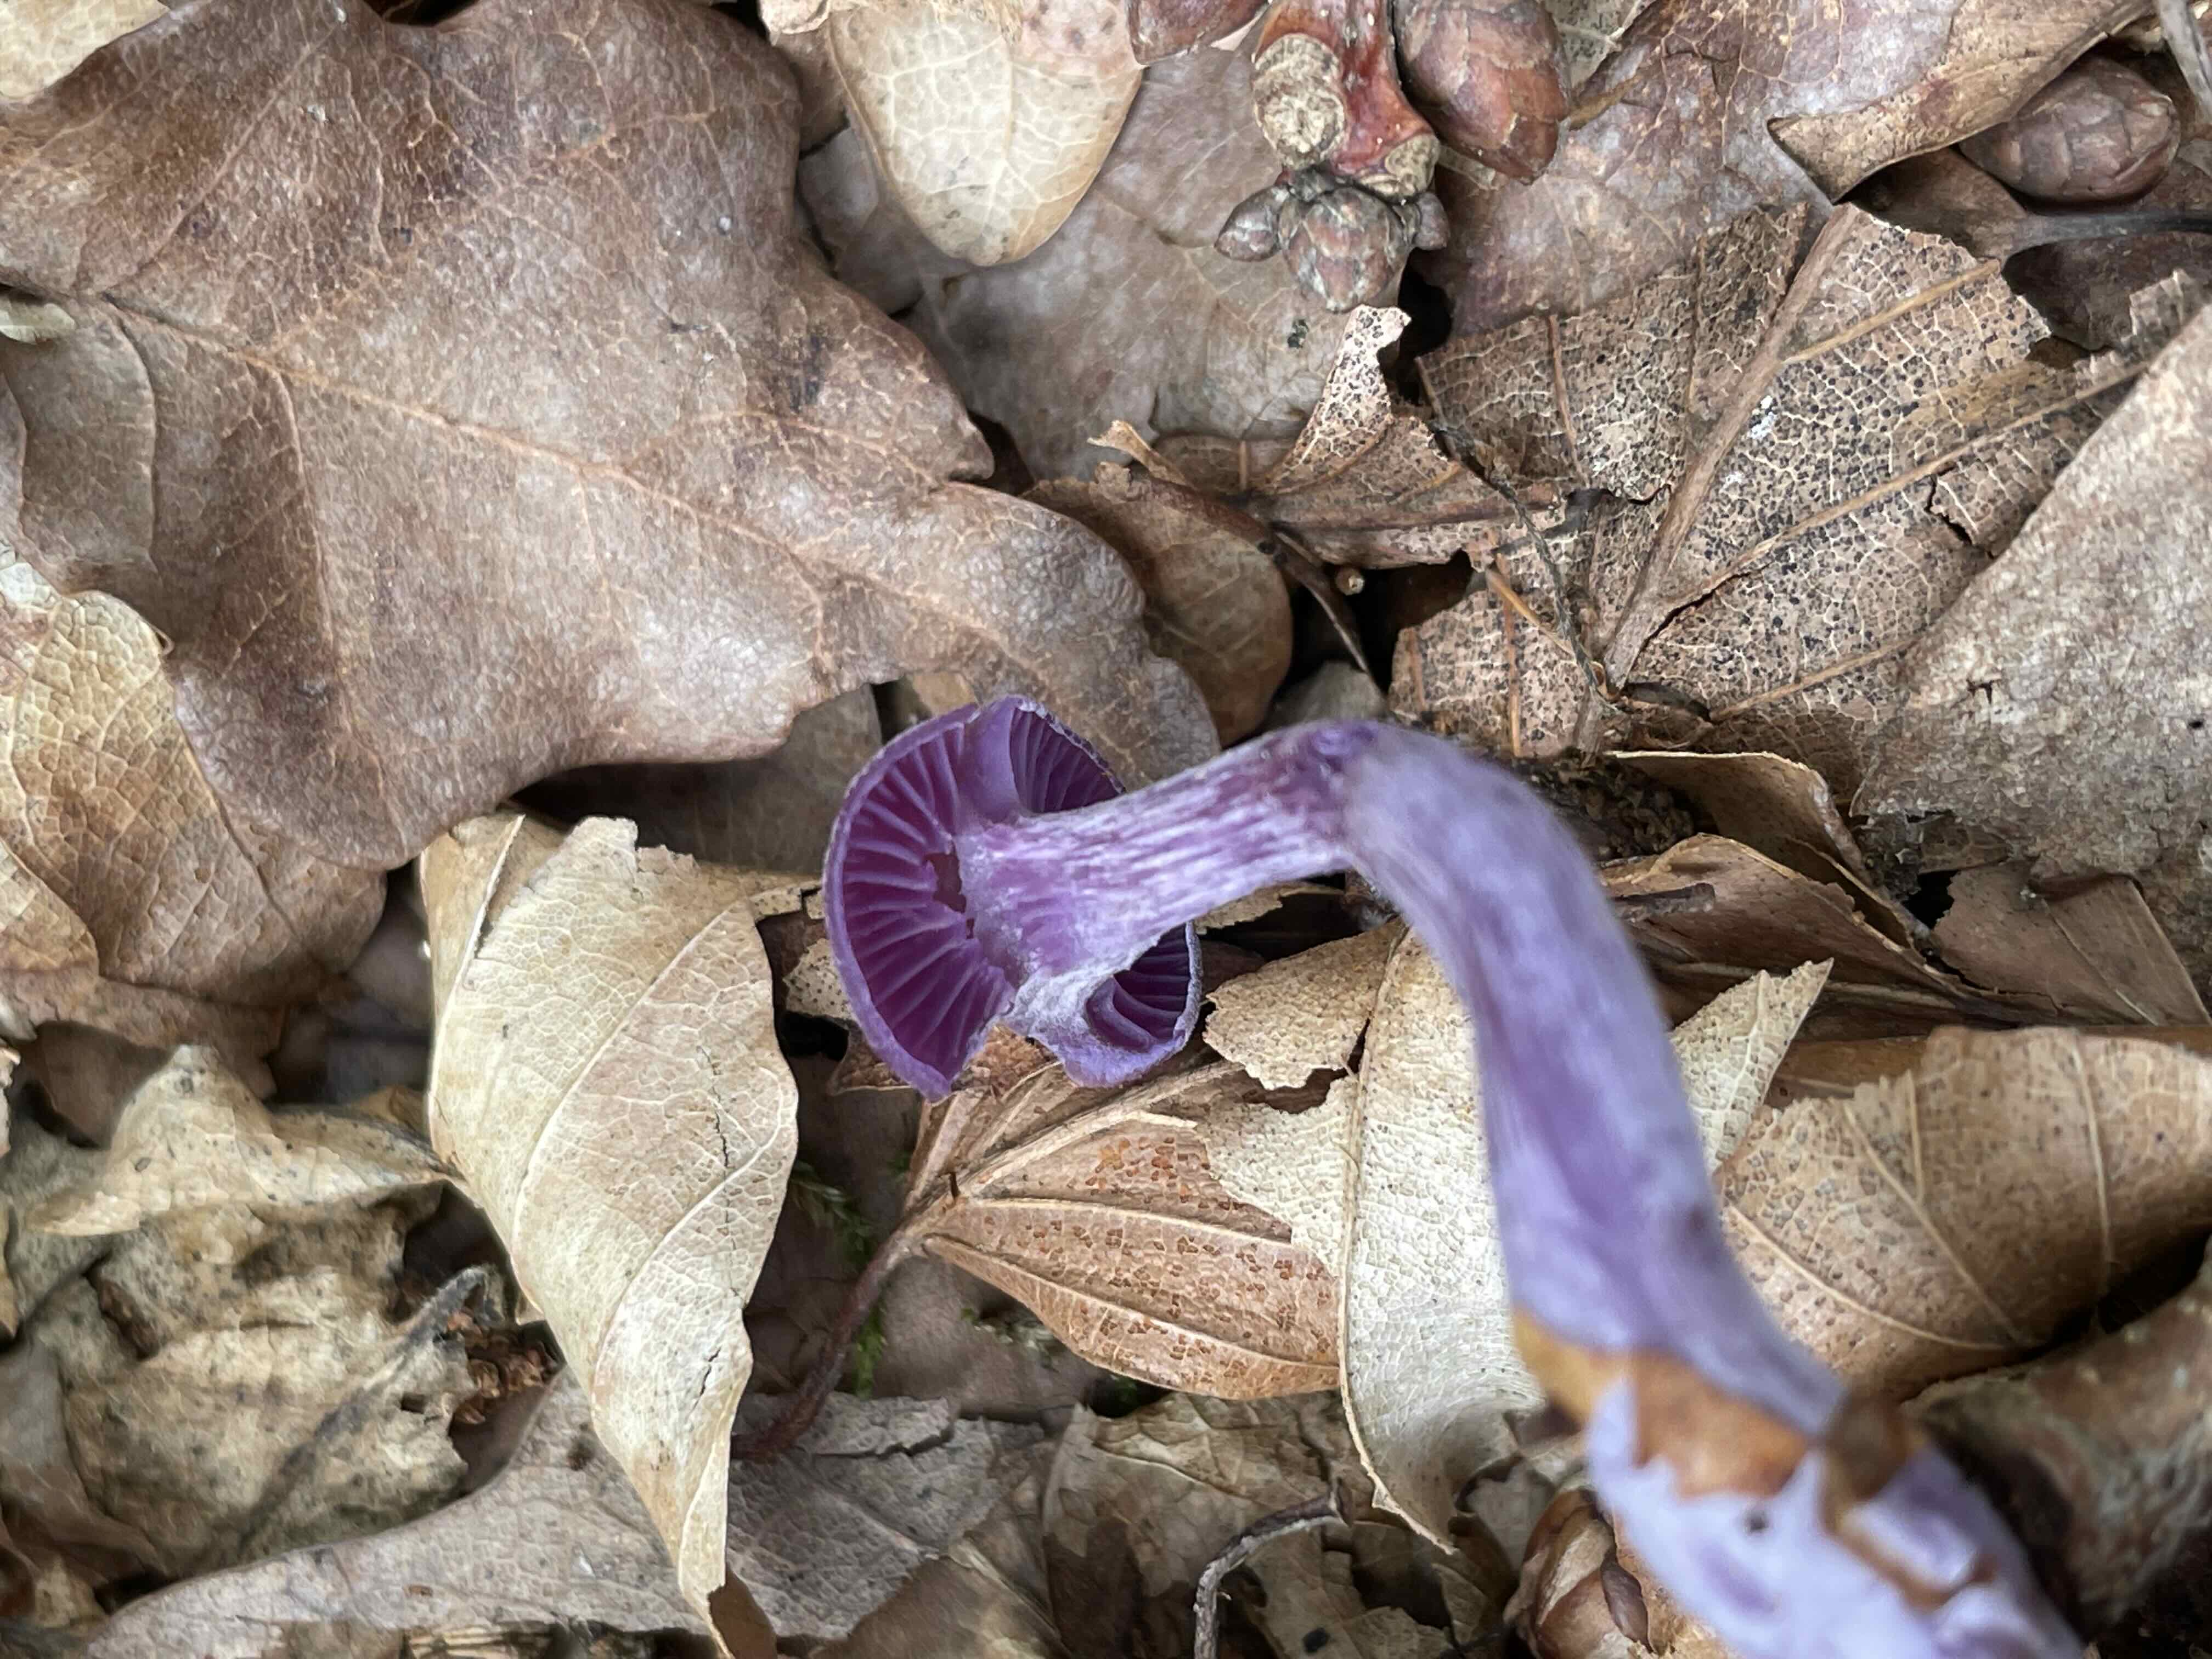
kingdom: Fungi
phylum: Basidiomycota
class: Agaricomycetes
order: Agaricales
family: Hydnangiaceae
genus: Laccaria
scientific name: Laccaria amethystina
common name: violet ametysthat
